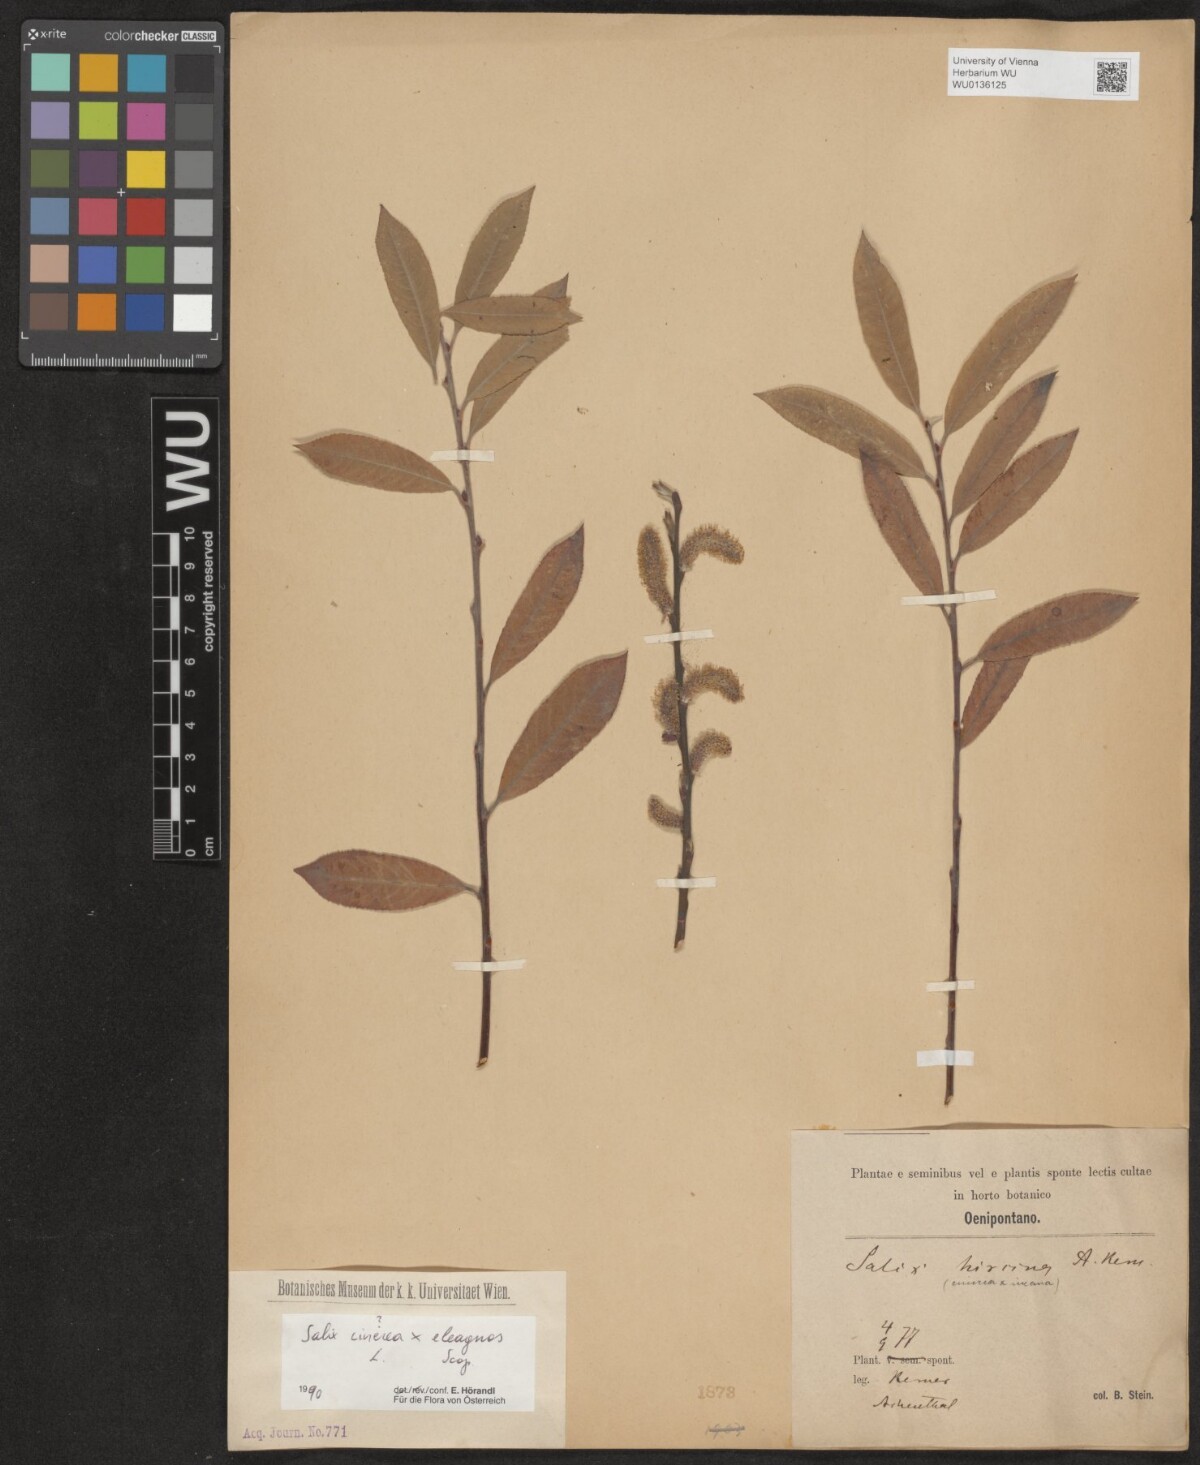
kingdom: Plantae
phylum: Tracheophyta
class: Magnoliopsida
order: Malpighiales
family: Salicaceae
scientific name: Salicaceae
